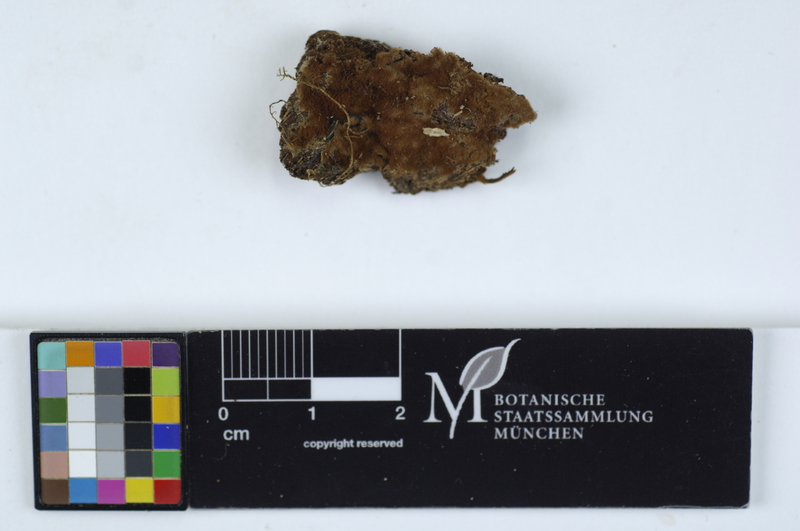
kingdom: Fungi
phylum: Basidiomycota
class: Agaricomycetes
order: Cantharellales
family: Botryobasidiaceae
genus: Botryobasidium
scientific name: Botryobasidium rubiginosum
